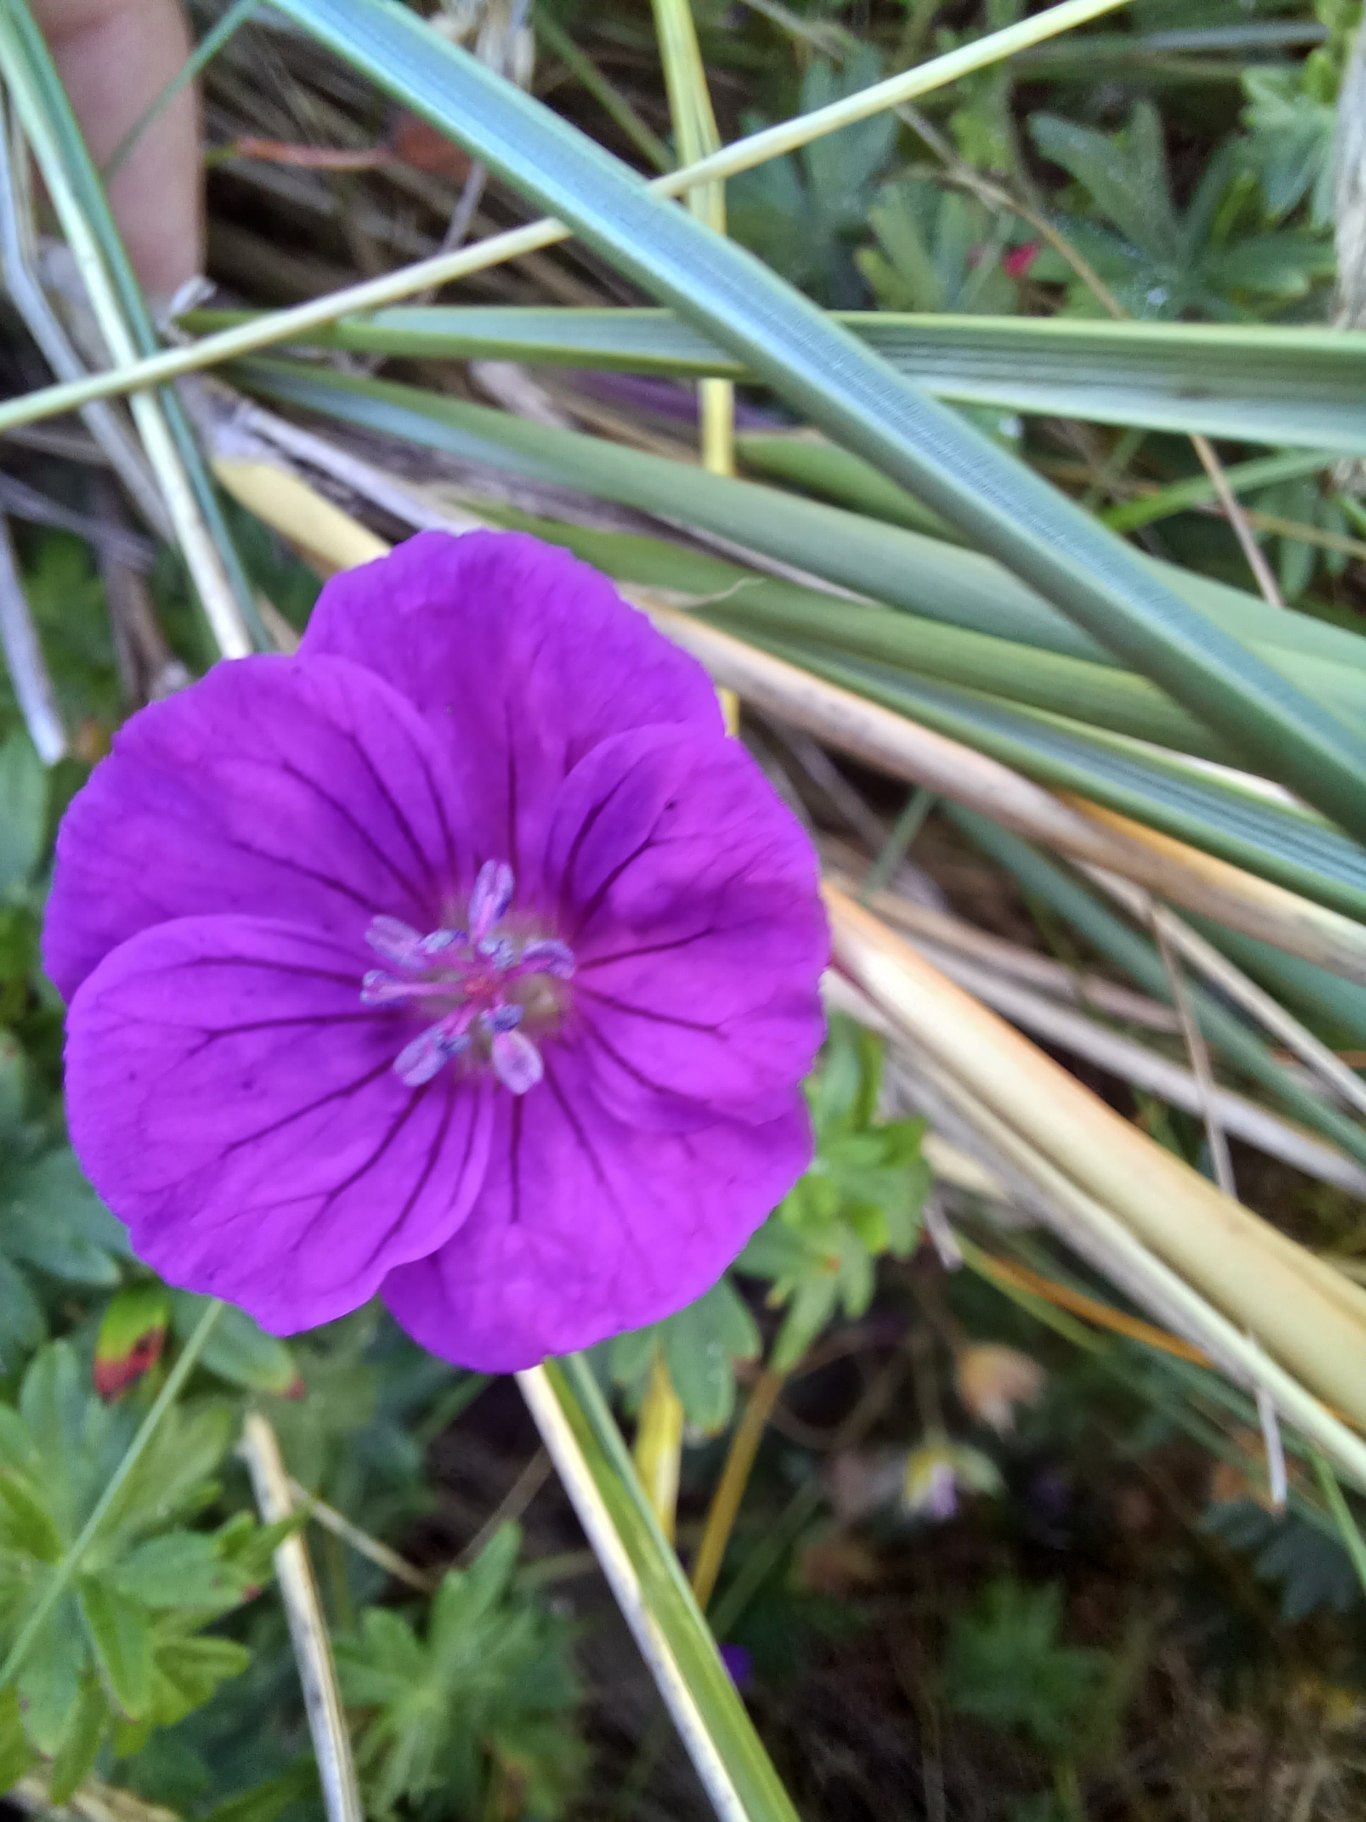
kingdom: Plantae
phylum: Tracheophyta
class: Magnoliopsida
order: Geraniales
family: Geraniaceae
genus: Geranium
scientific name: Geranium sanguineum
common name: Blodrød storkenæb
